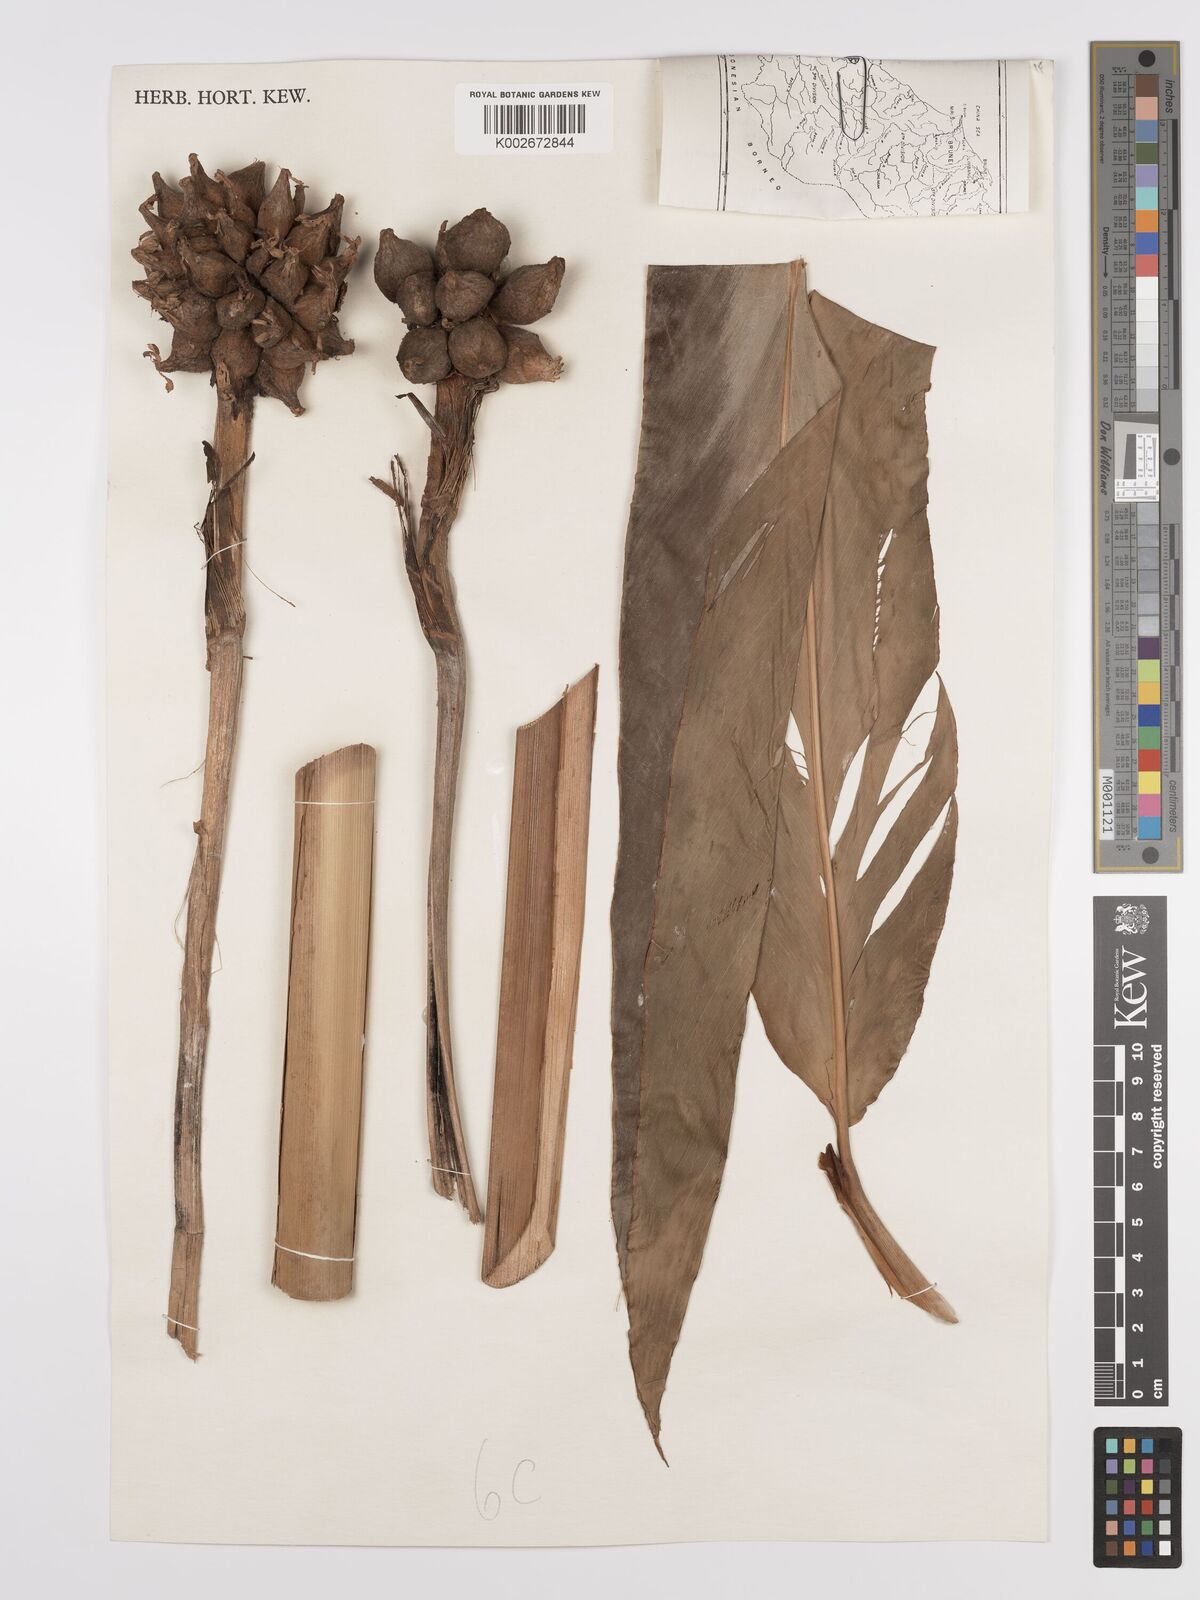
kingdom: Plantae
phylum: Tracheophyta
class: Liliopsida
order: Zingiberales
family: Zingiberaceae
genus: Etlingera
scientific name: Etlingera
